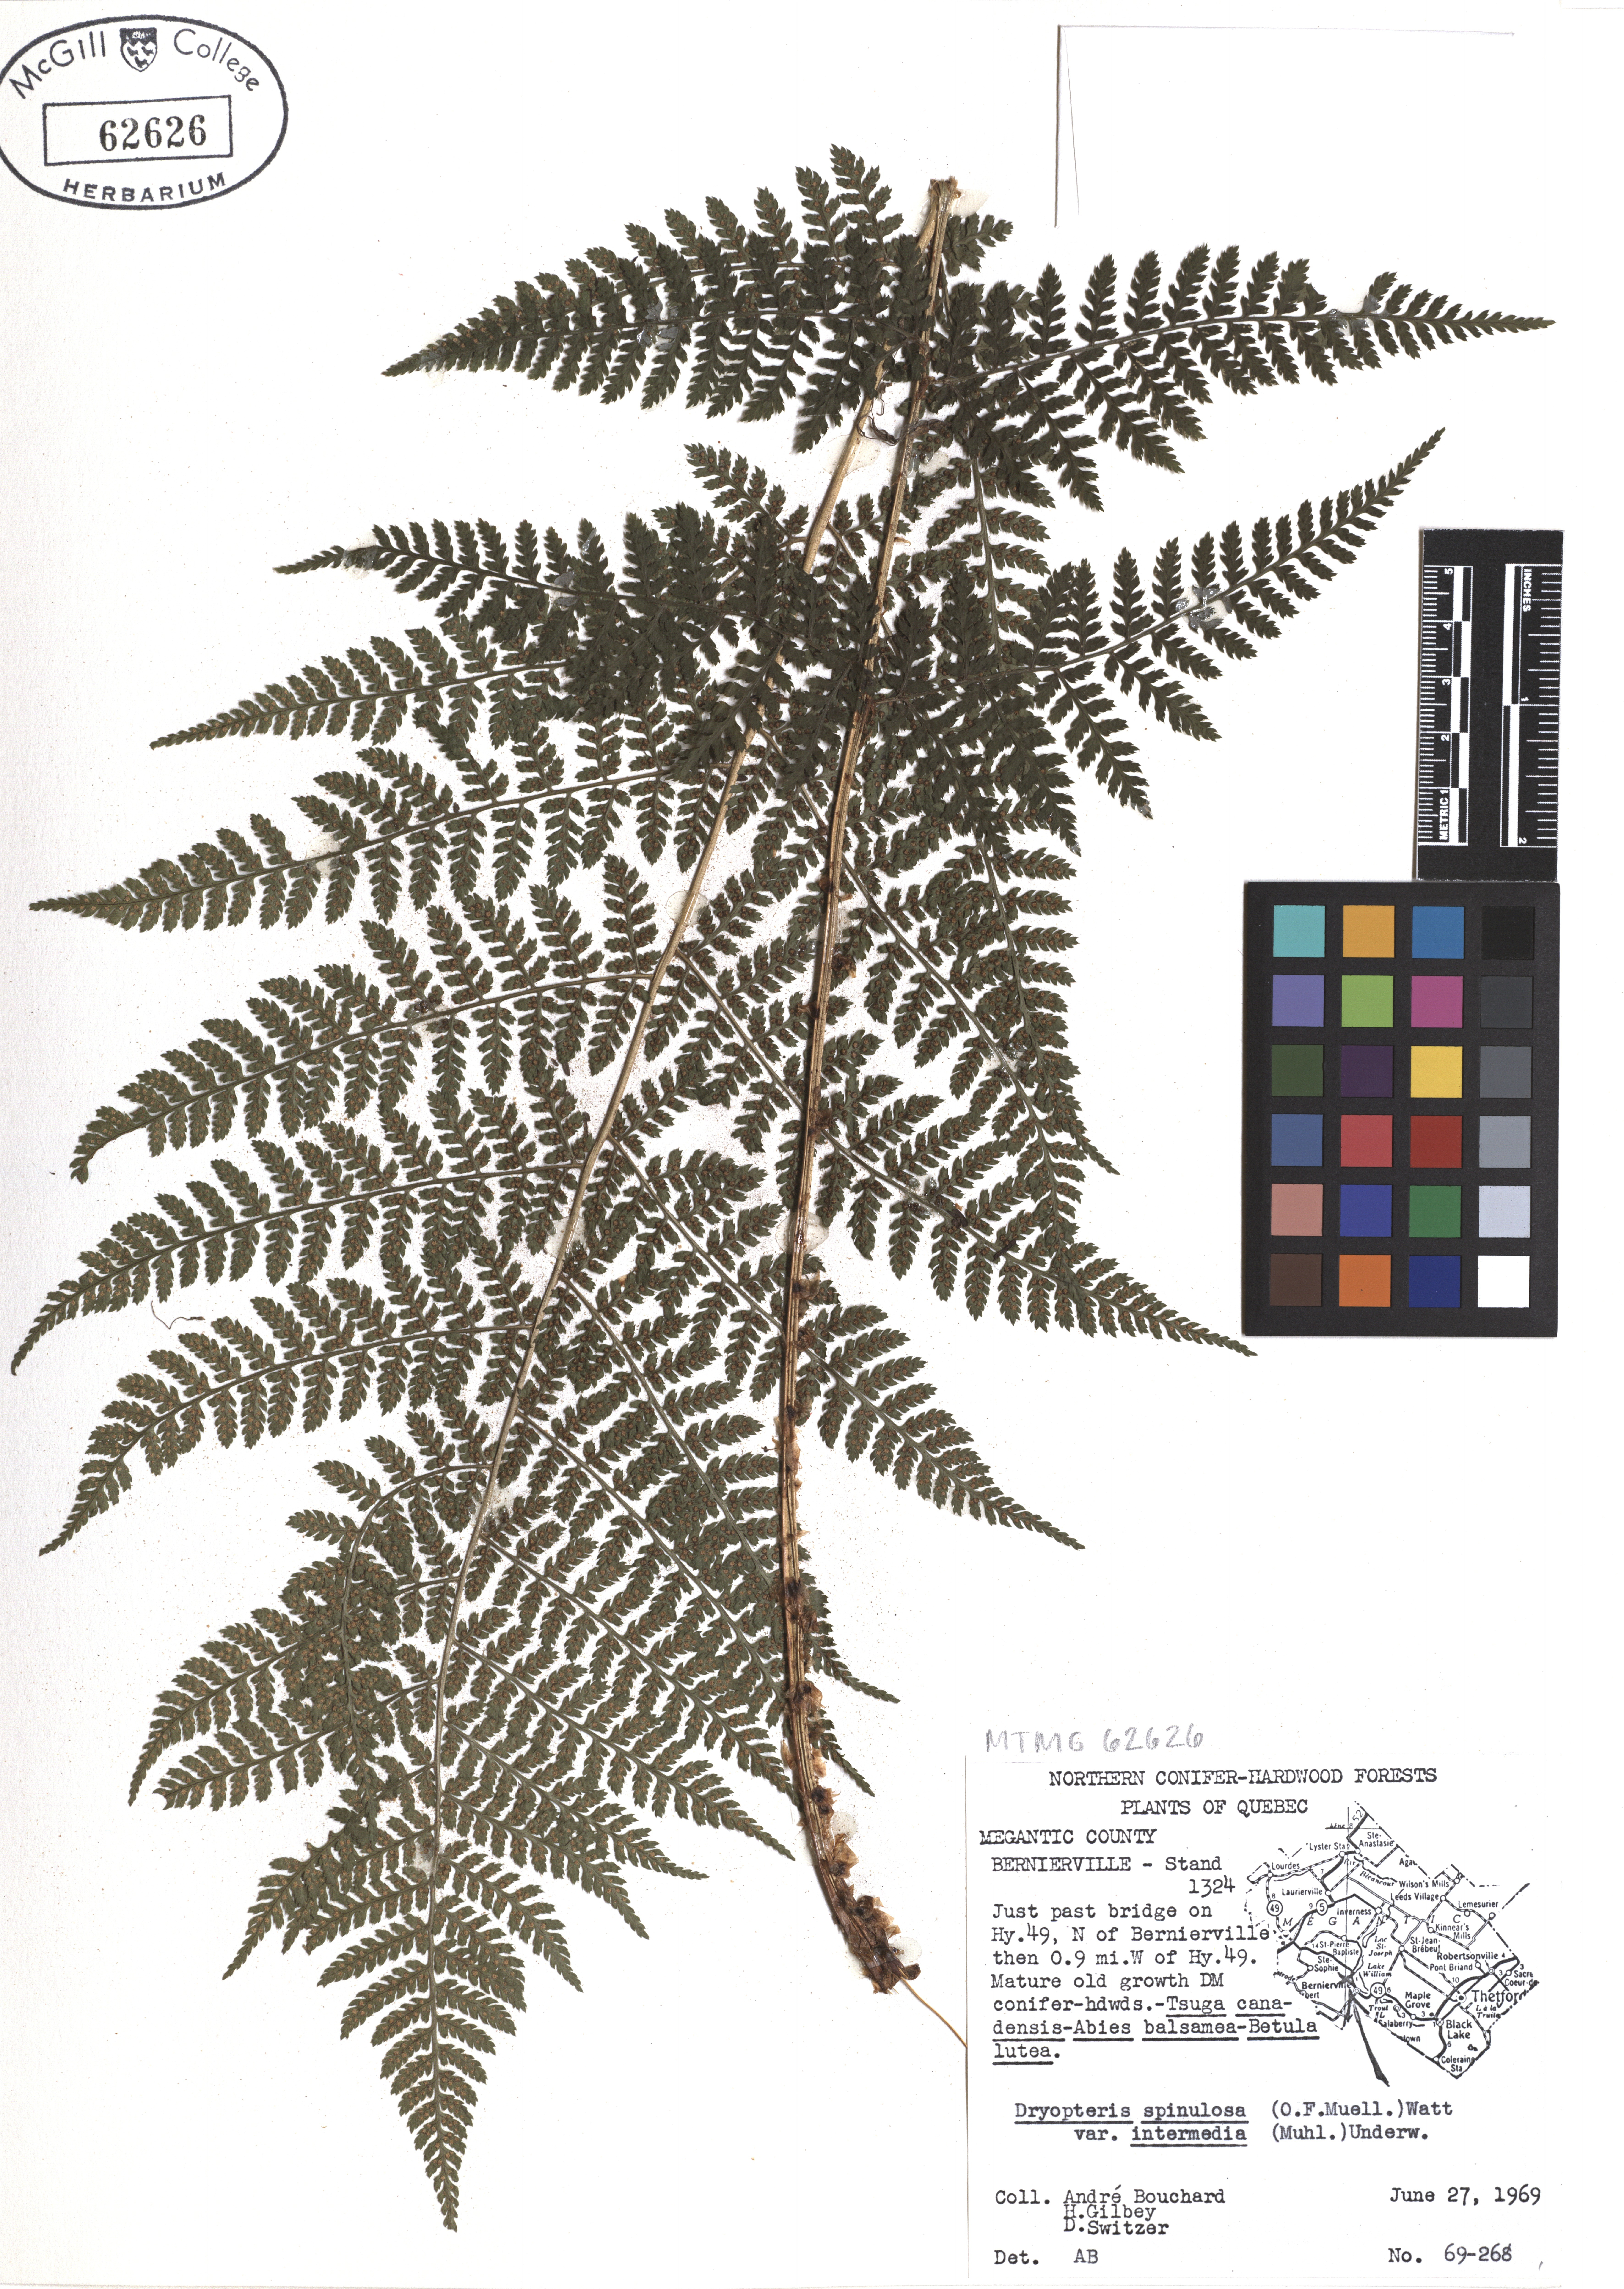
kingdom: Plantae
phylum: Tracheophyta
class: Polypodiopsida
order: Polypodiales
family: Dryopteridaceae
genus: Dryopteris
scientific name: Dryopteris intermedia
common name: Evergreen wood fern
